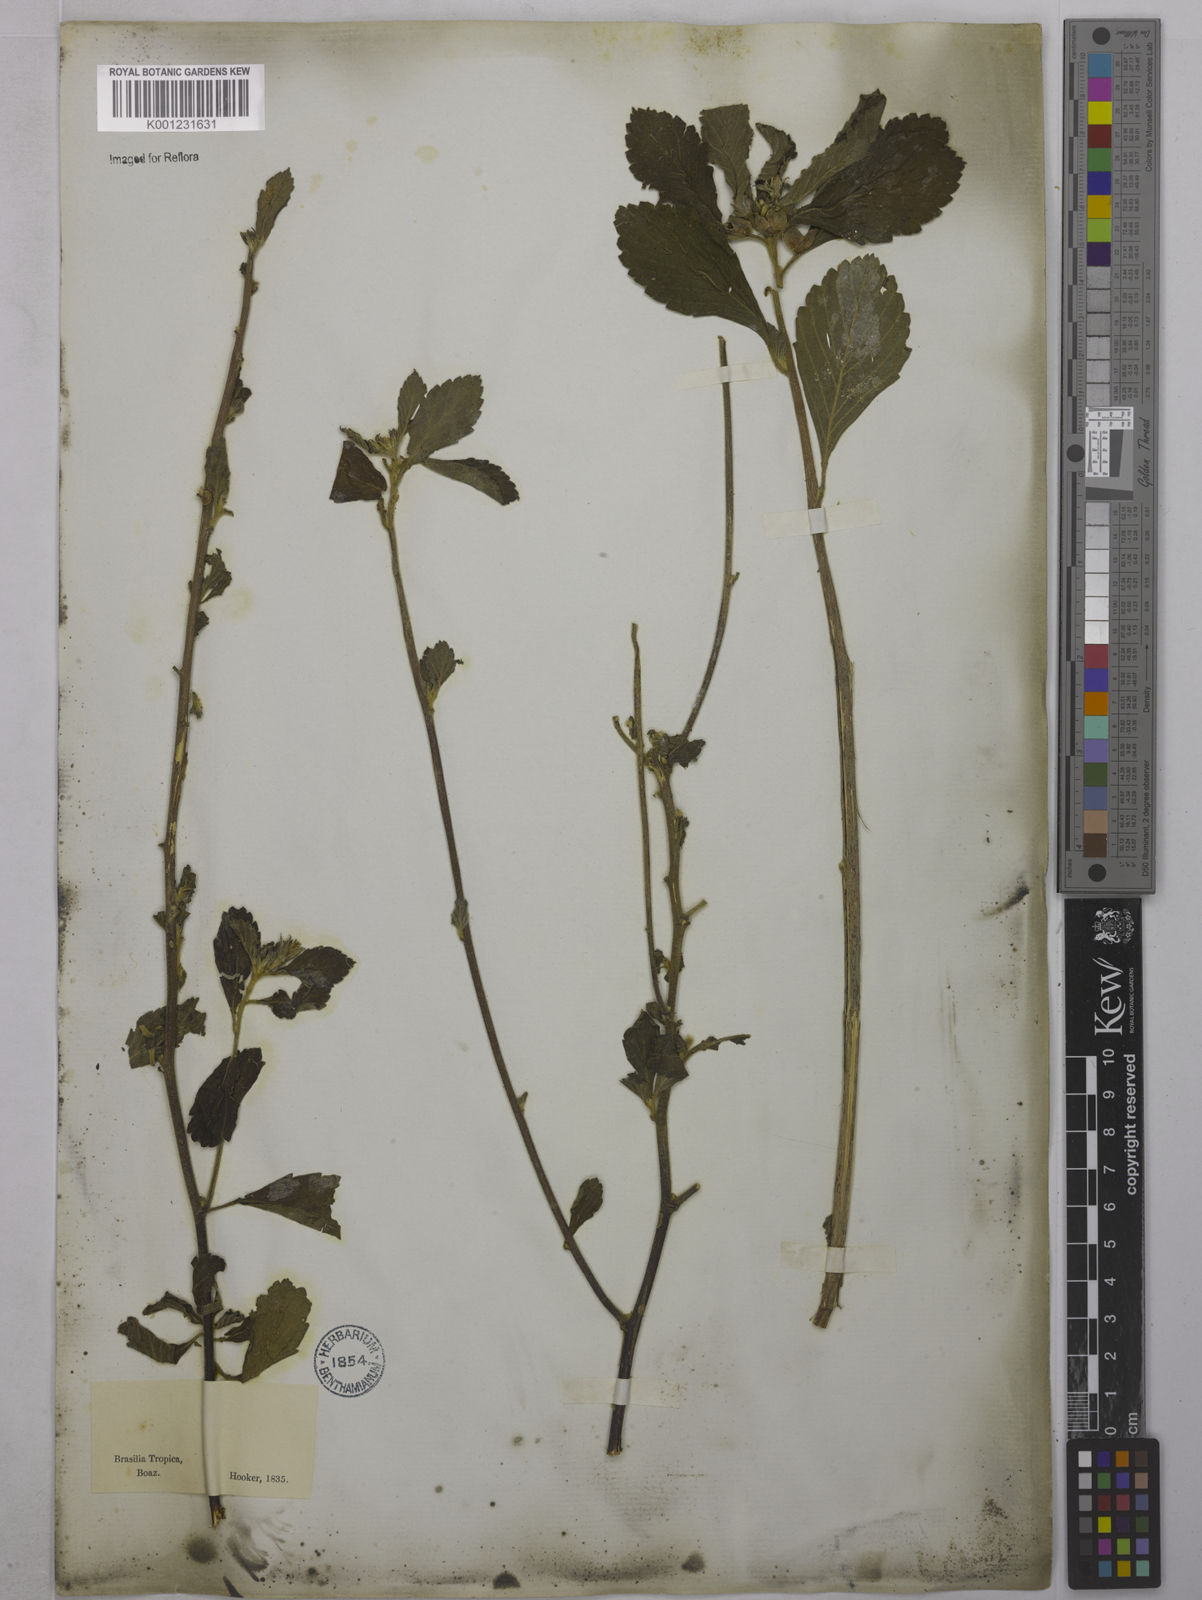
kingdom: Plantae
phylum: Tracheophyta
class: Magnoliopsida
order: Malpighiales
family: Turneraceae
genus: Turnera
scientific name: Turnera cuneiformis
